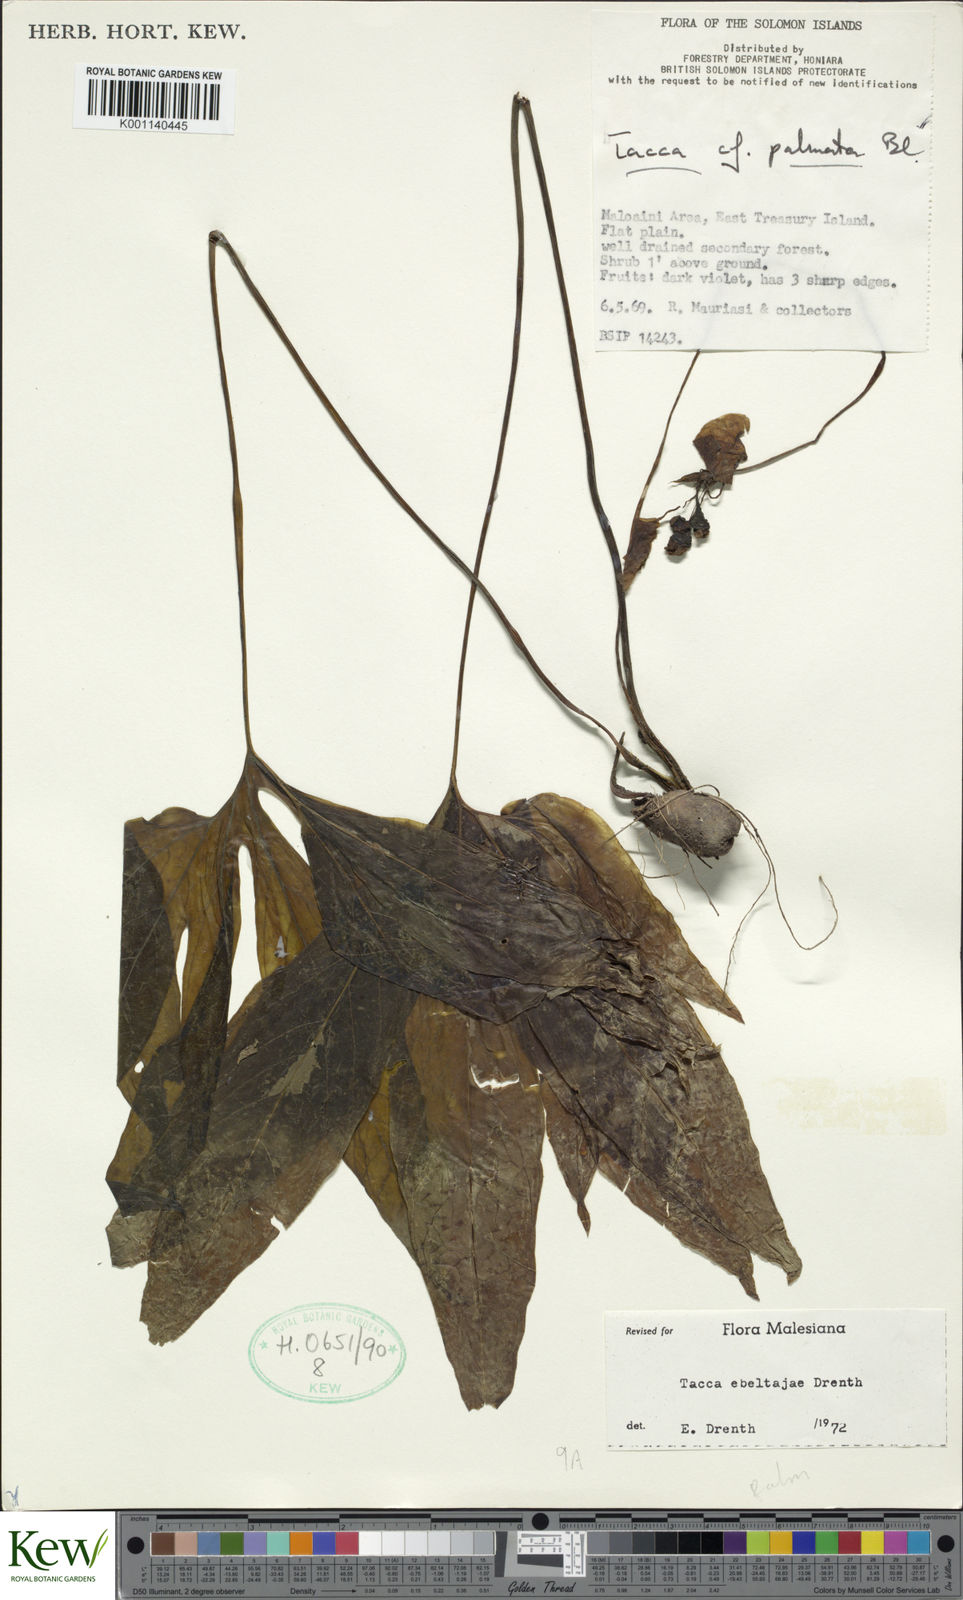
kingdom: Plantae
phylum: Tracheophyta
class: Liliopsida
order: Dioscoreales
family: Dioscoreaceae
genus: Tacca
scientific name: Tacca ebeltajae
